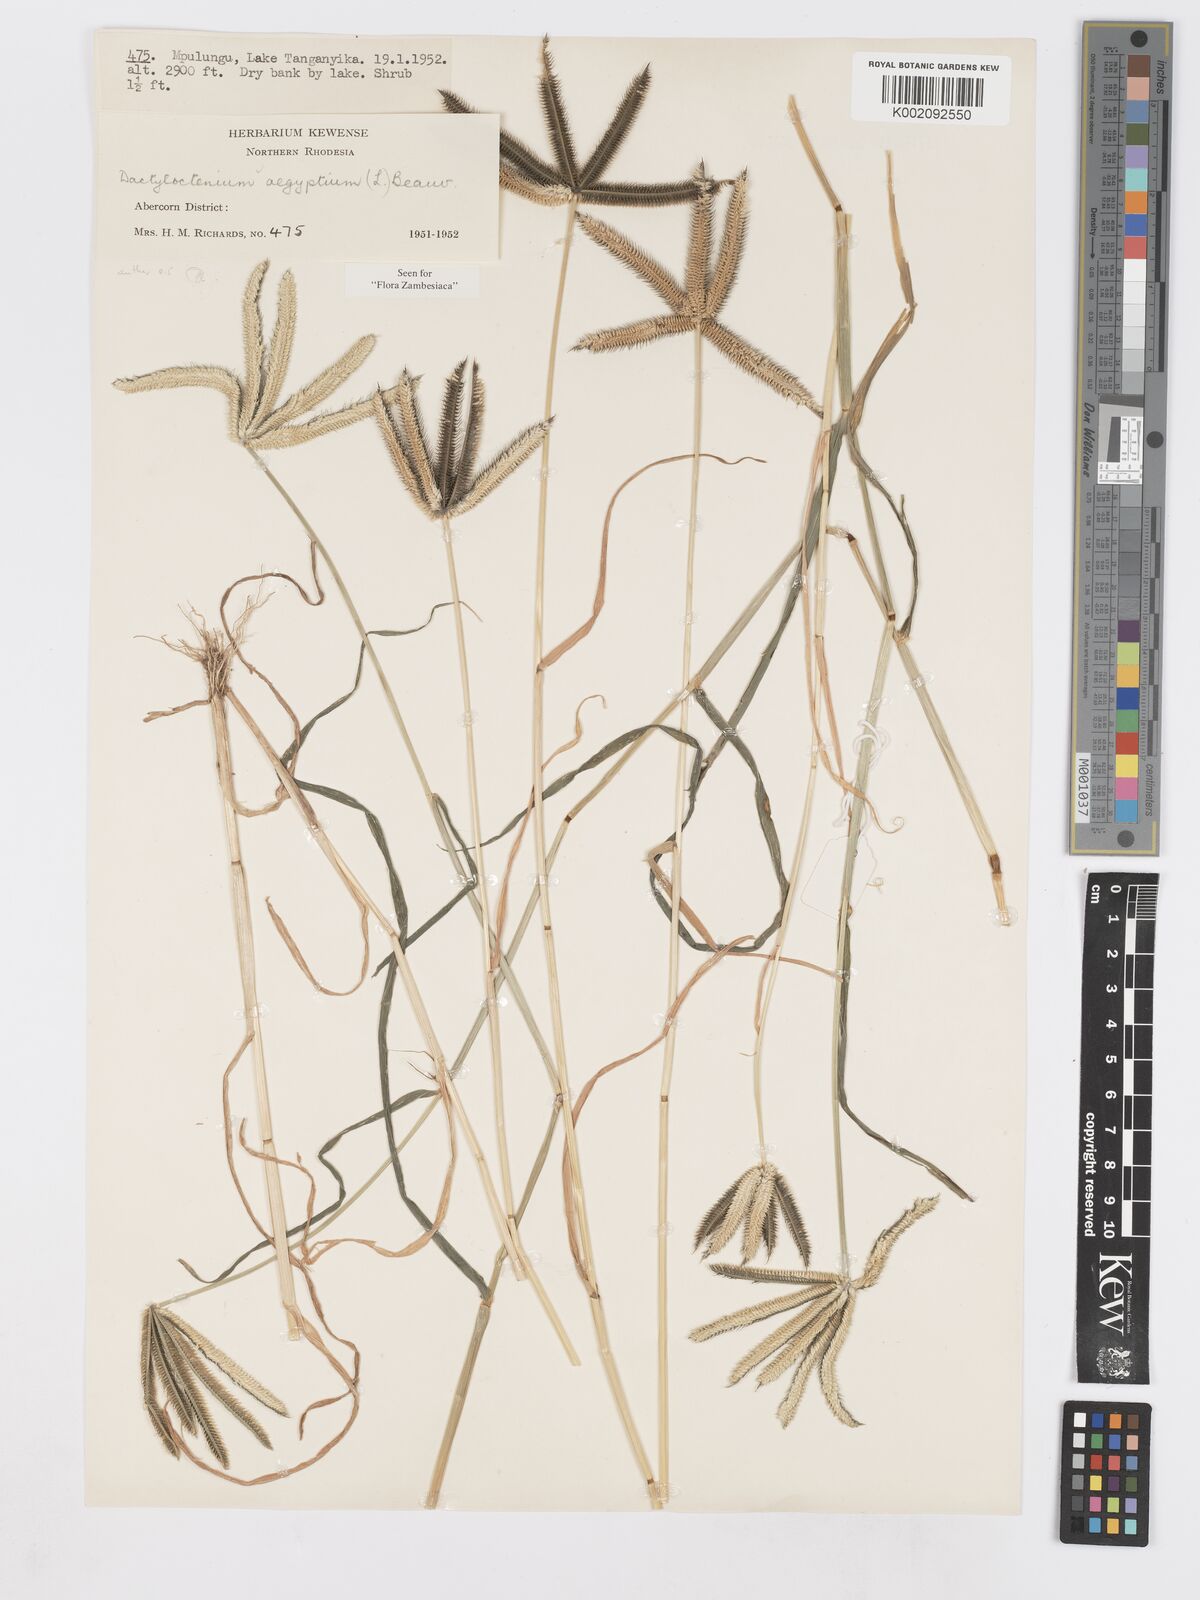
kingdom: Plantae
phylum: Tracheophyta
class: Liliopsida
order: Poales
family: Poaceae
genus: Dactyloctenium
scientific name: Dactyloctenium aegyptium
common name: Egyptian grass
